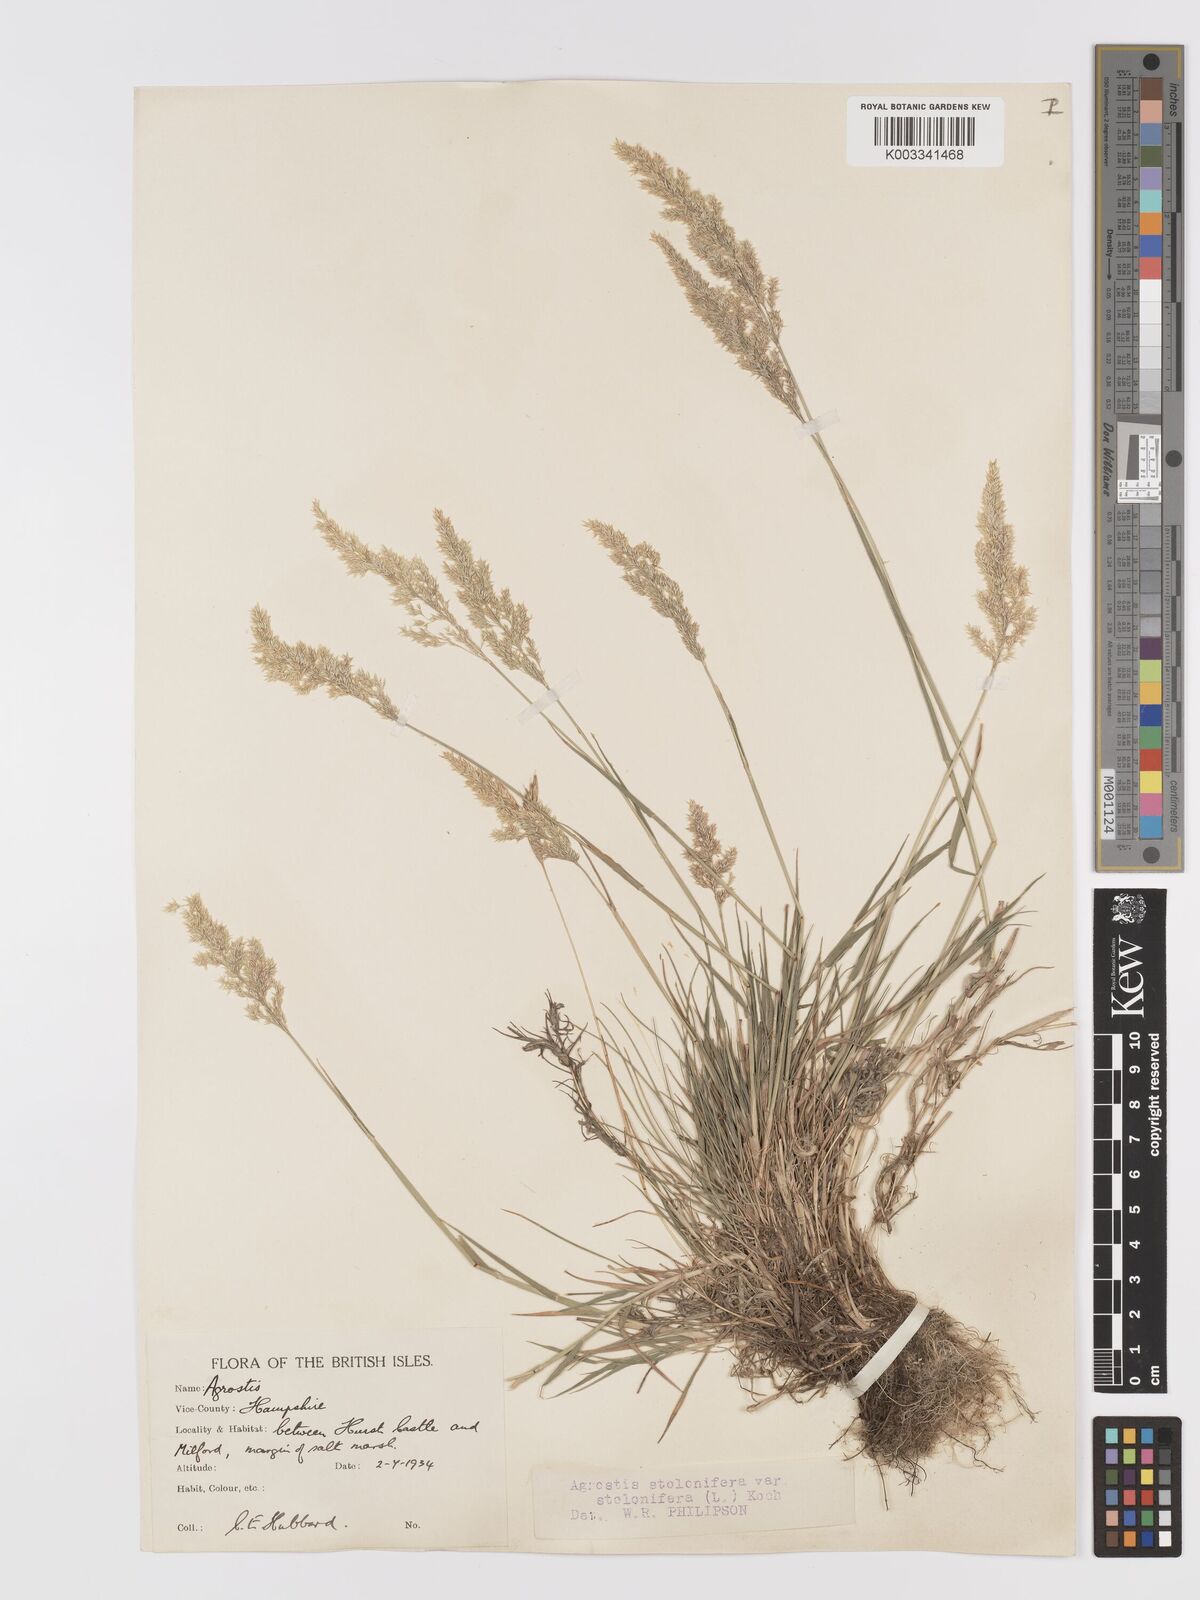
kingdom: Plantae
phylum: Tracheophyta
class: Liliopsida
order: Poales
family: Poaceae
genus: Agrostis
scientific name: Agrostis stolonifera
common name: Creeping bentgrass
